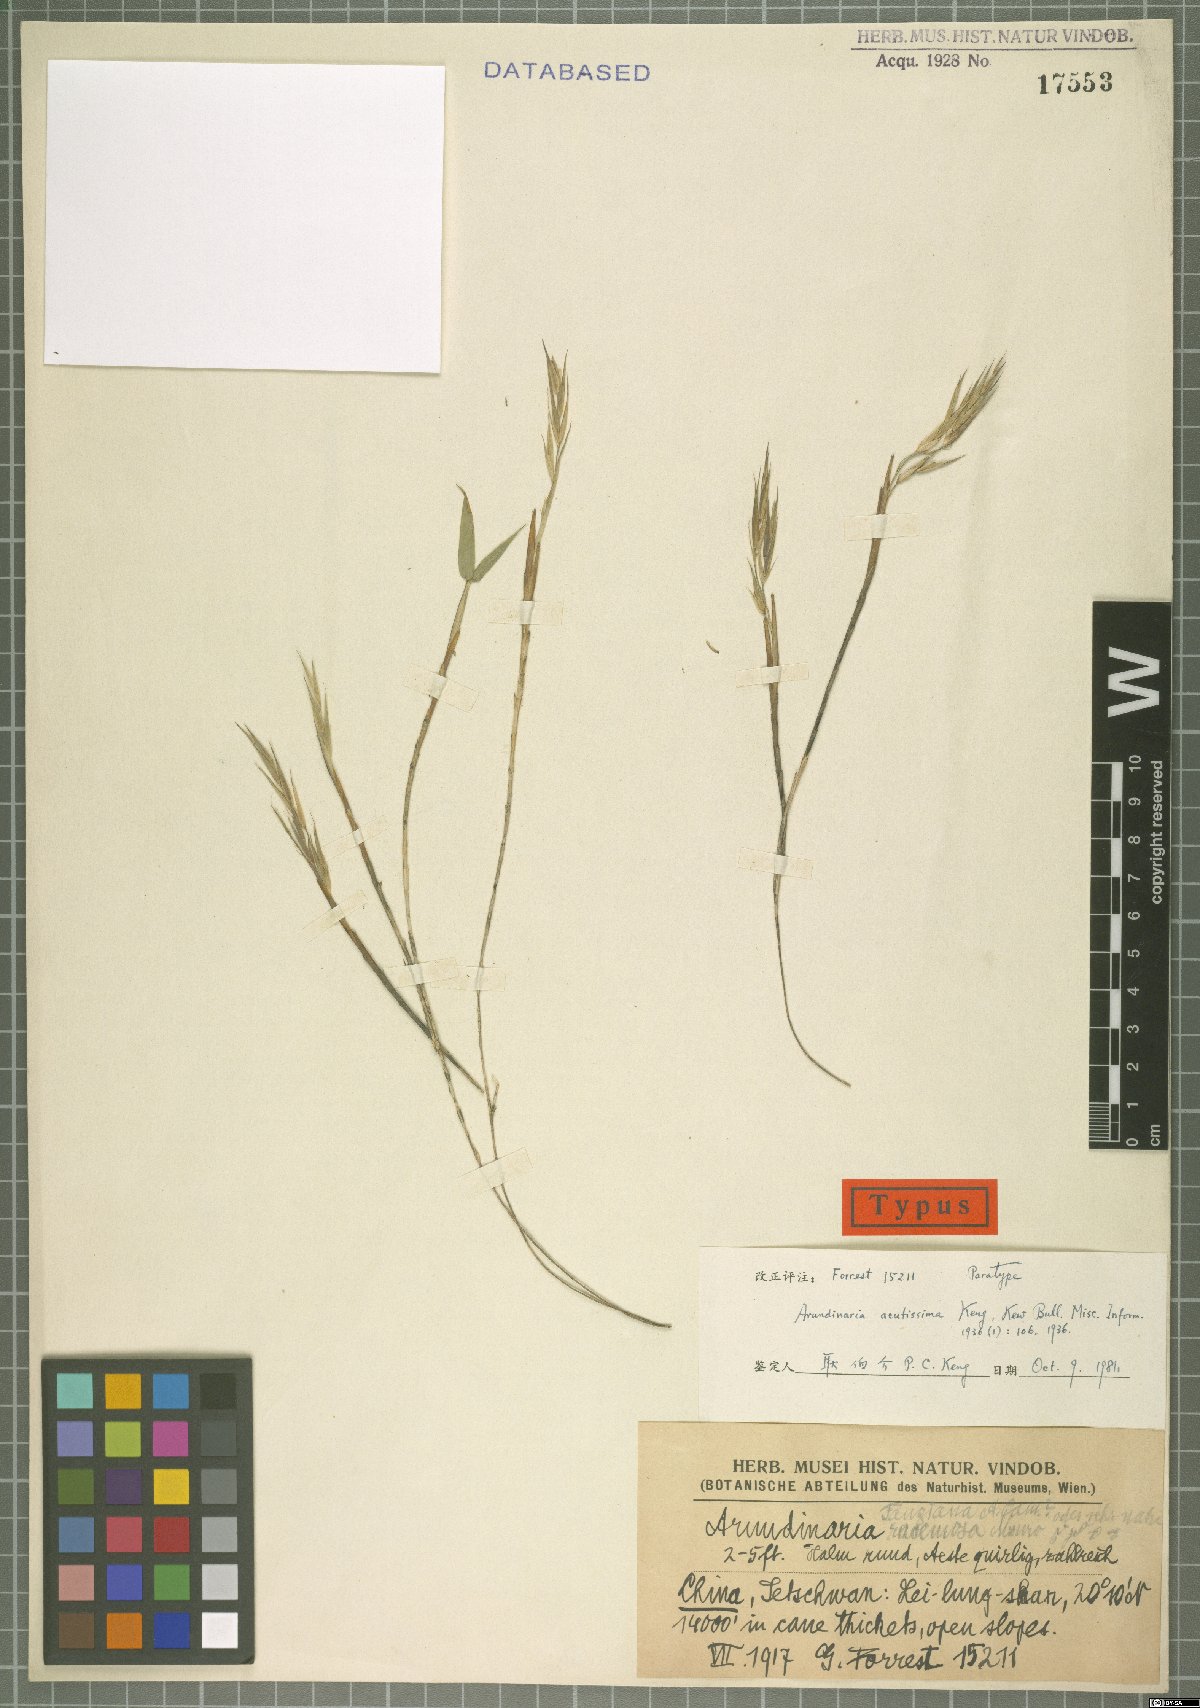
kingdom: Plantae
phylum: Tracheophyta
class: Liliopsida
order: Poales
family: Poaceae
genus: Fargesia
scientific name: Fargesia melanostachys
